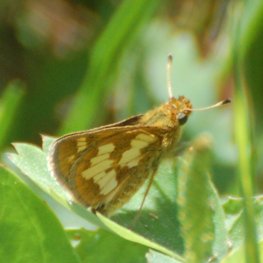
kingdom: Animalia
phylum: Arthropoda
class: Insecta
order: Lepidoptera
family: Hesperiidae
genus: Polites
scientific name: Polites coras
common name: Peck's Skipper
